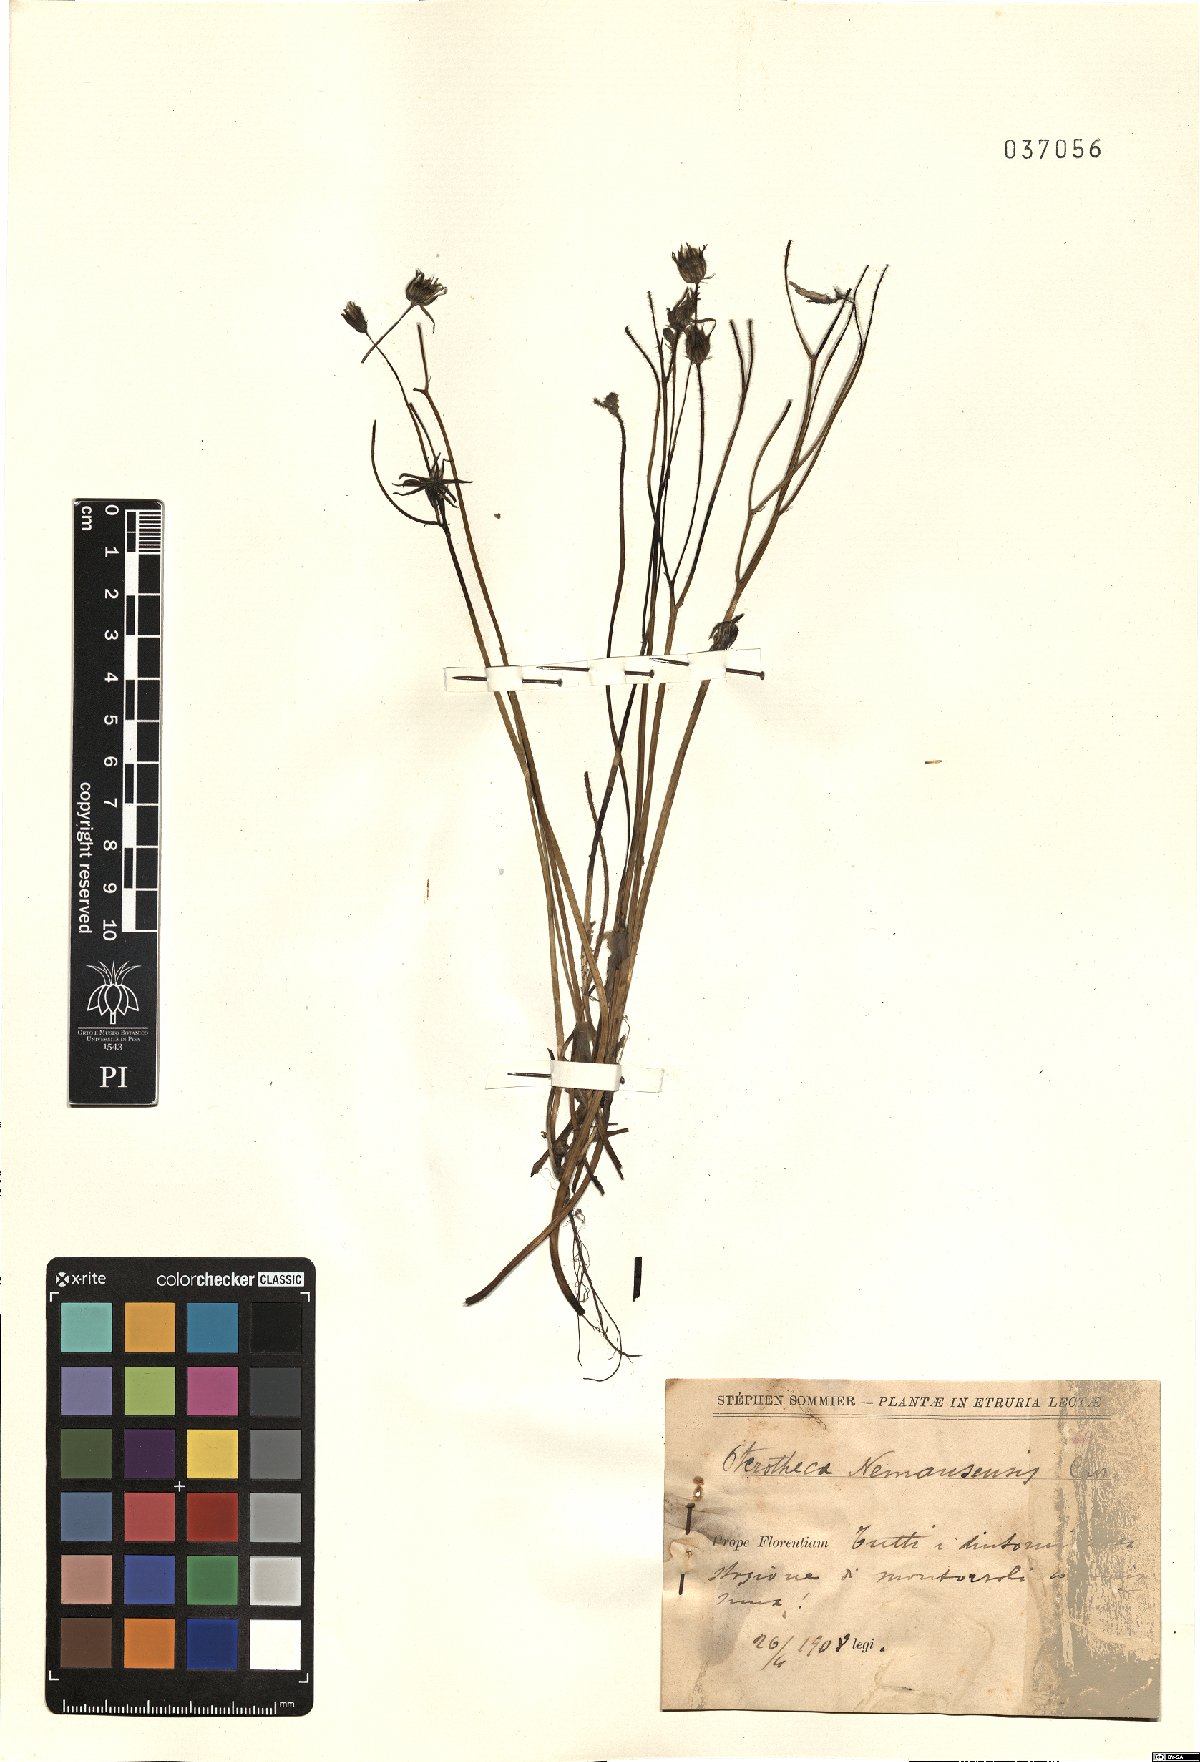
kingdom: Plantae
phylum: Tracheophyta
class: Magnoliopsida
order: Asterales
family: Asteraceae
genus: Crepis
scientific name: Crepis sancta
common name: Hawk's-beard
